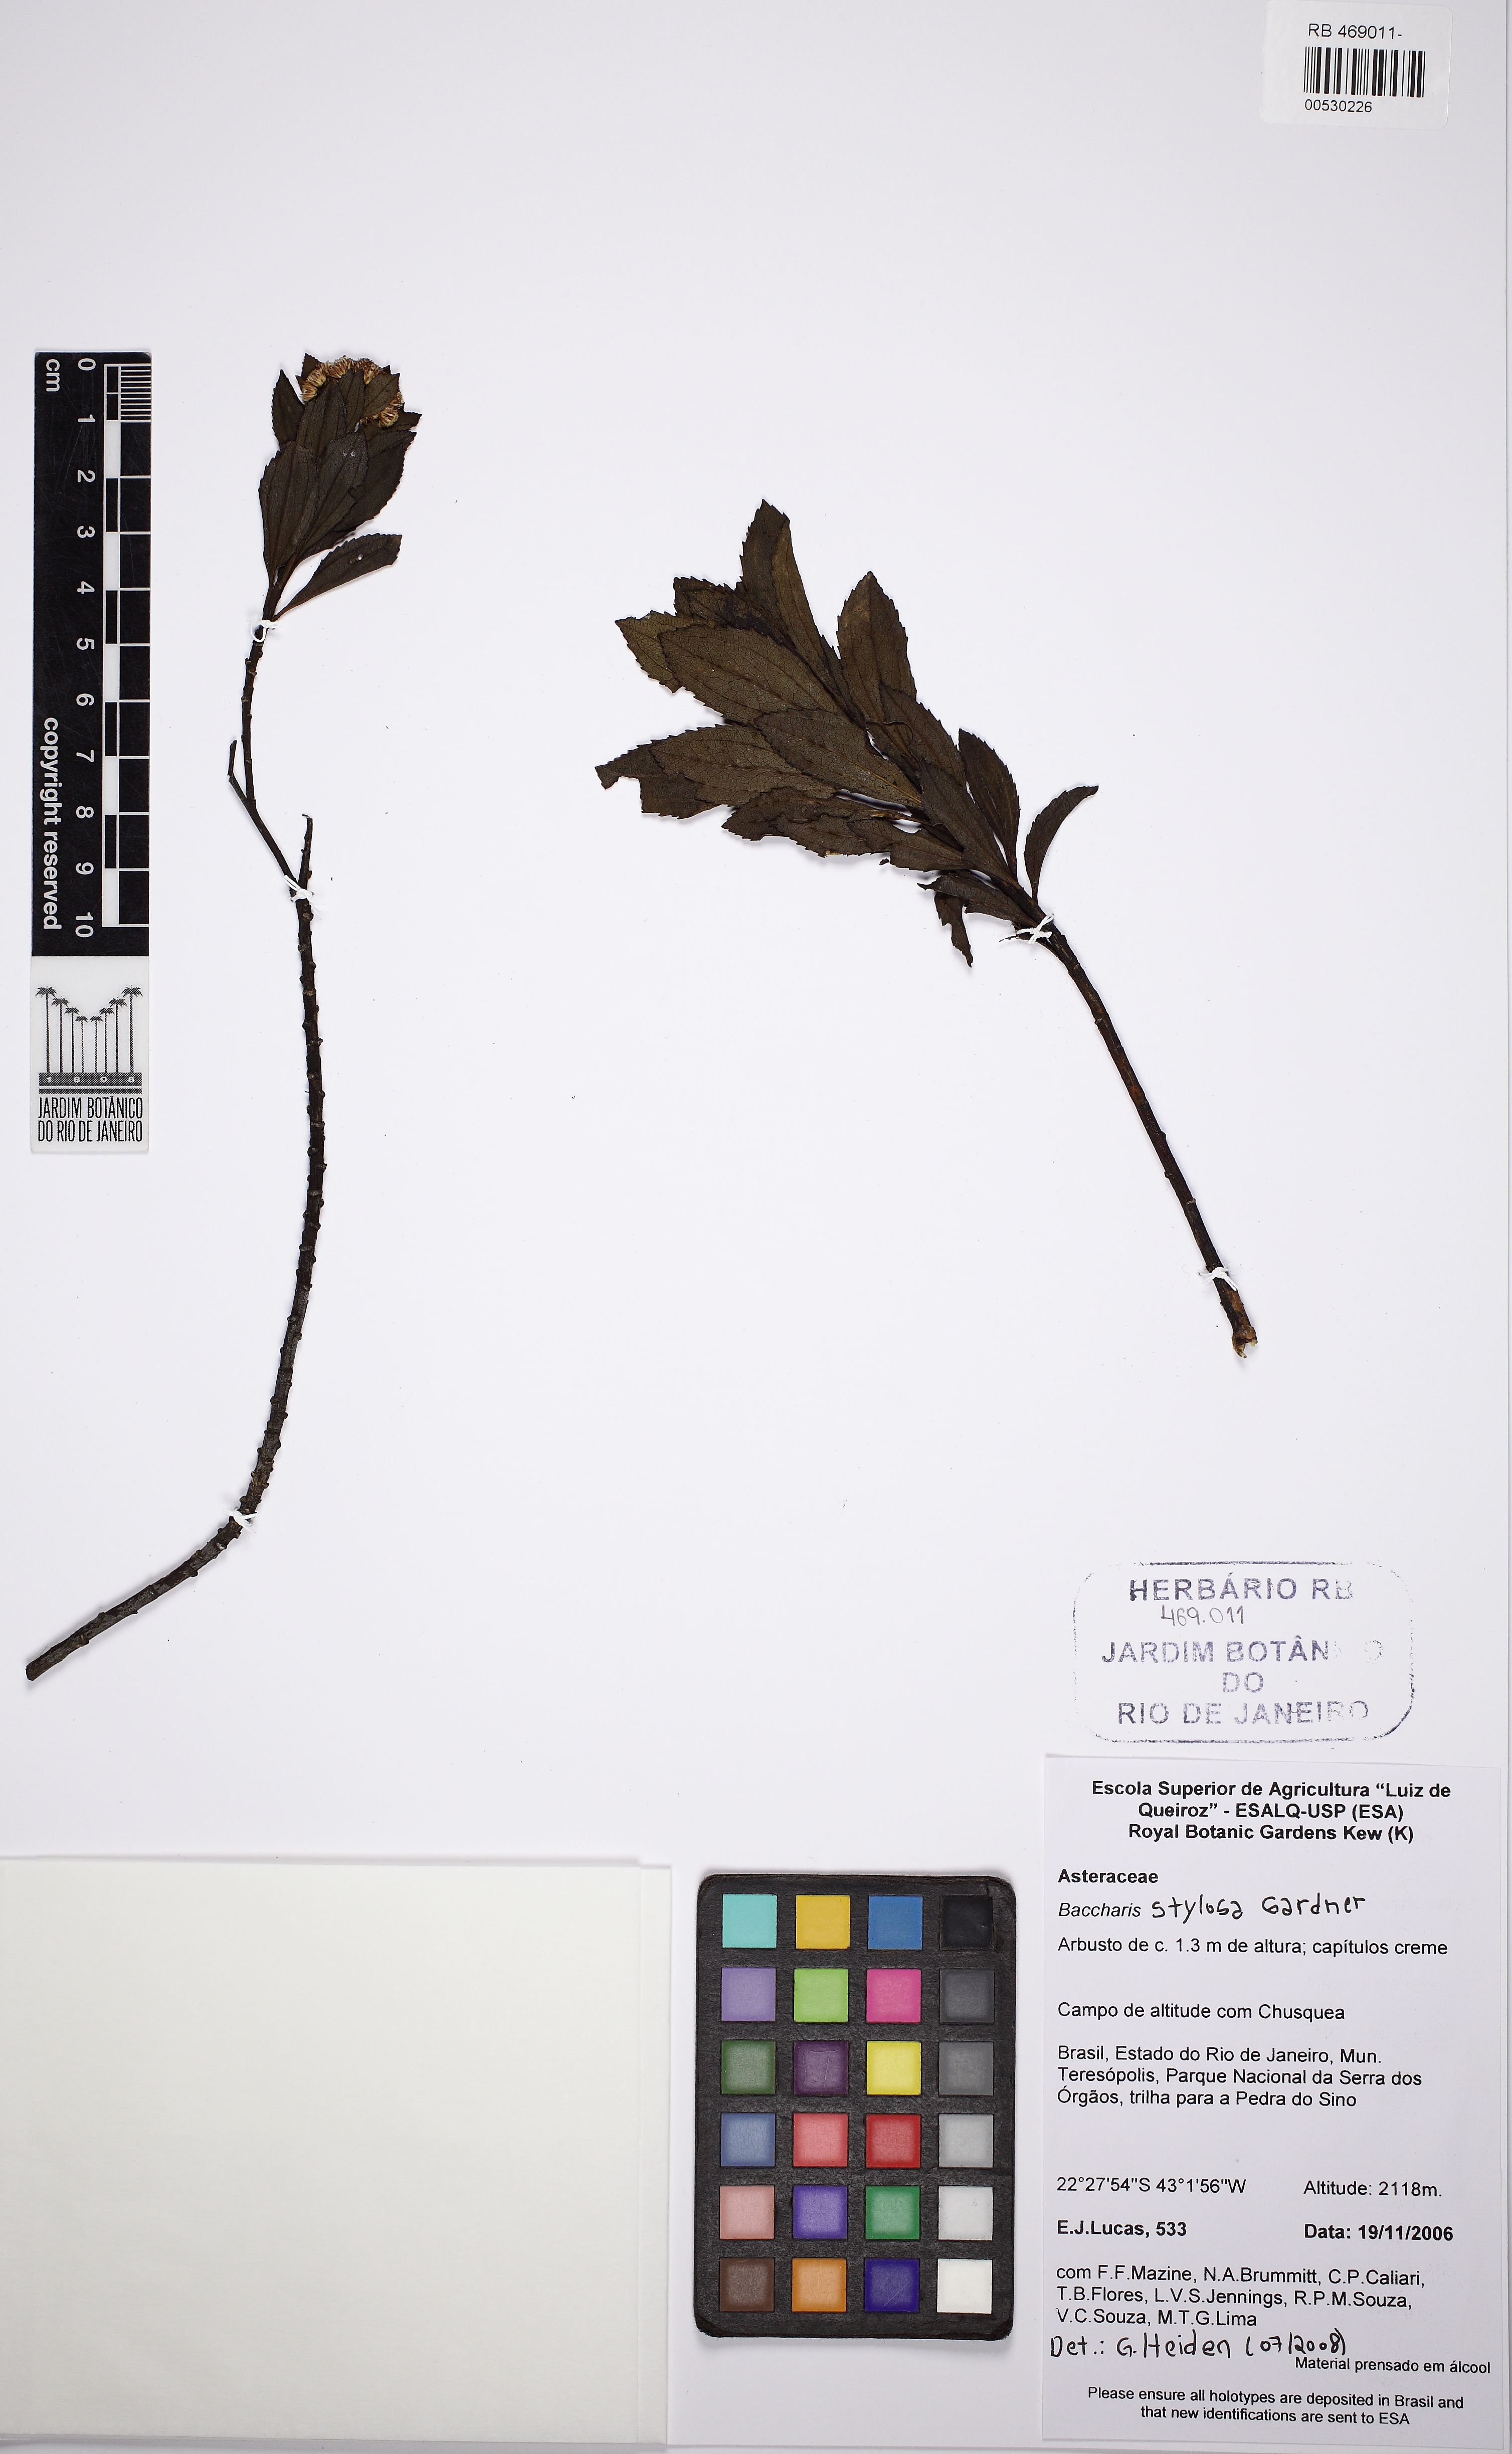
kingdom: Plantae
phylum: Tracheophyta
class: Magnoliopsida
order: Asterales
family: Asteraceae
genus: Baccharis
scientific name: Baccharis stylosa
